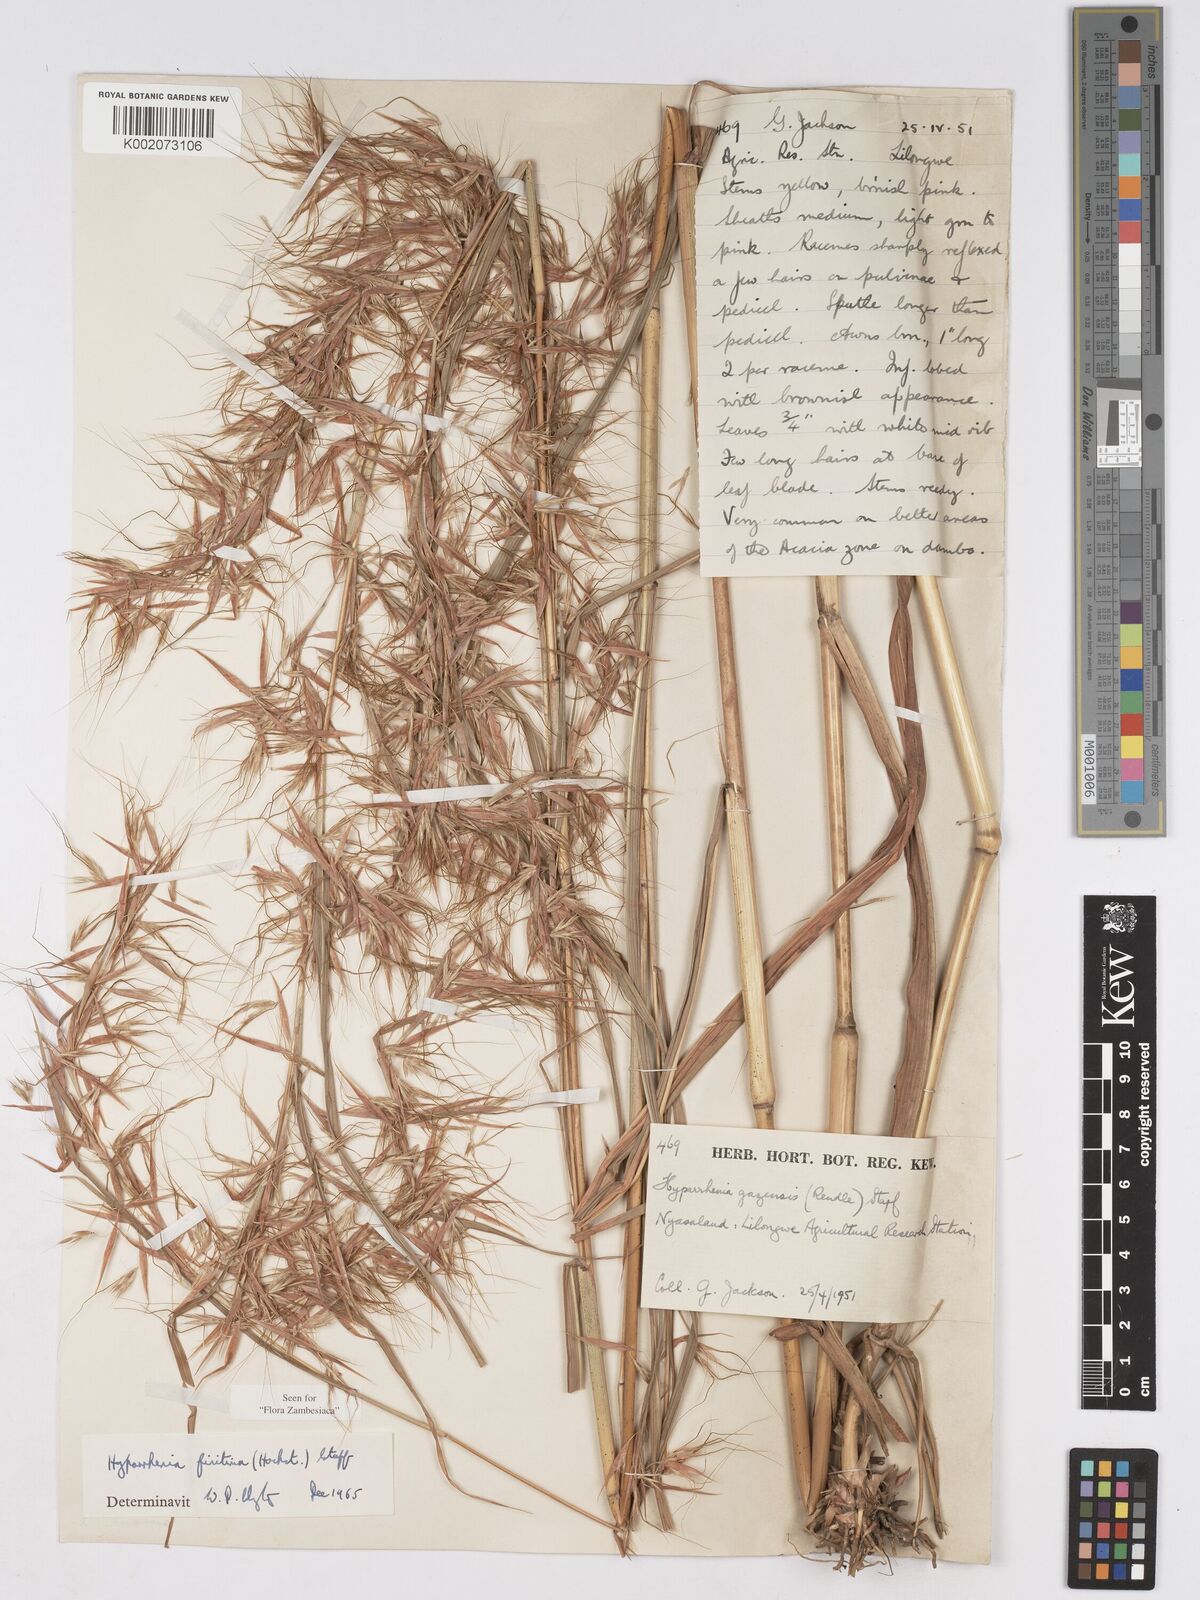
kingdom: Plantae
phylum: Tracheophyta
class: Liliopsida
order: Poales
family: Poaceae
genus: Hyparrhenia
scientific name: Hyparrhenia finitima
